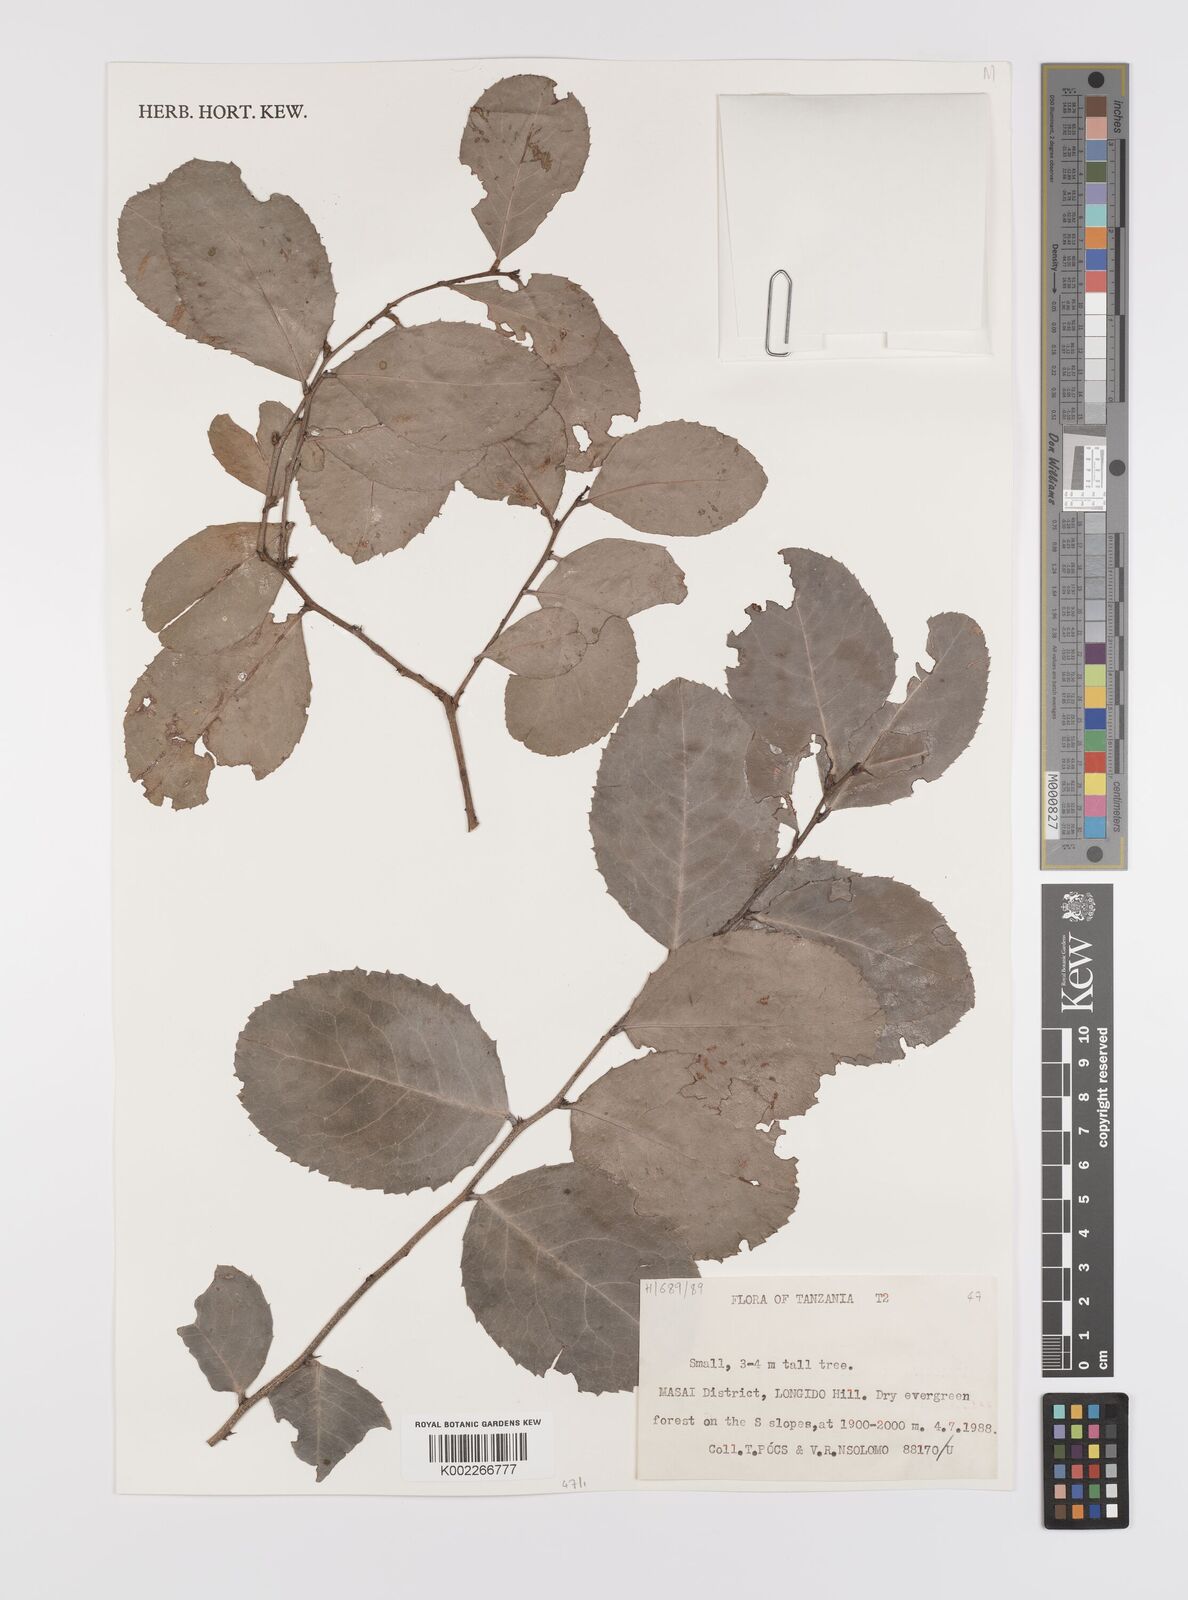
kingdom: Plantae
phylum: Tracheophyta
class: Magnoliopsida
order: Celastrales
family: Celastraceae
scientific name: Celastraceae
